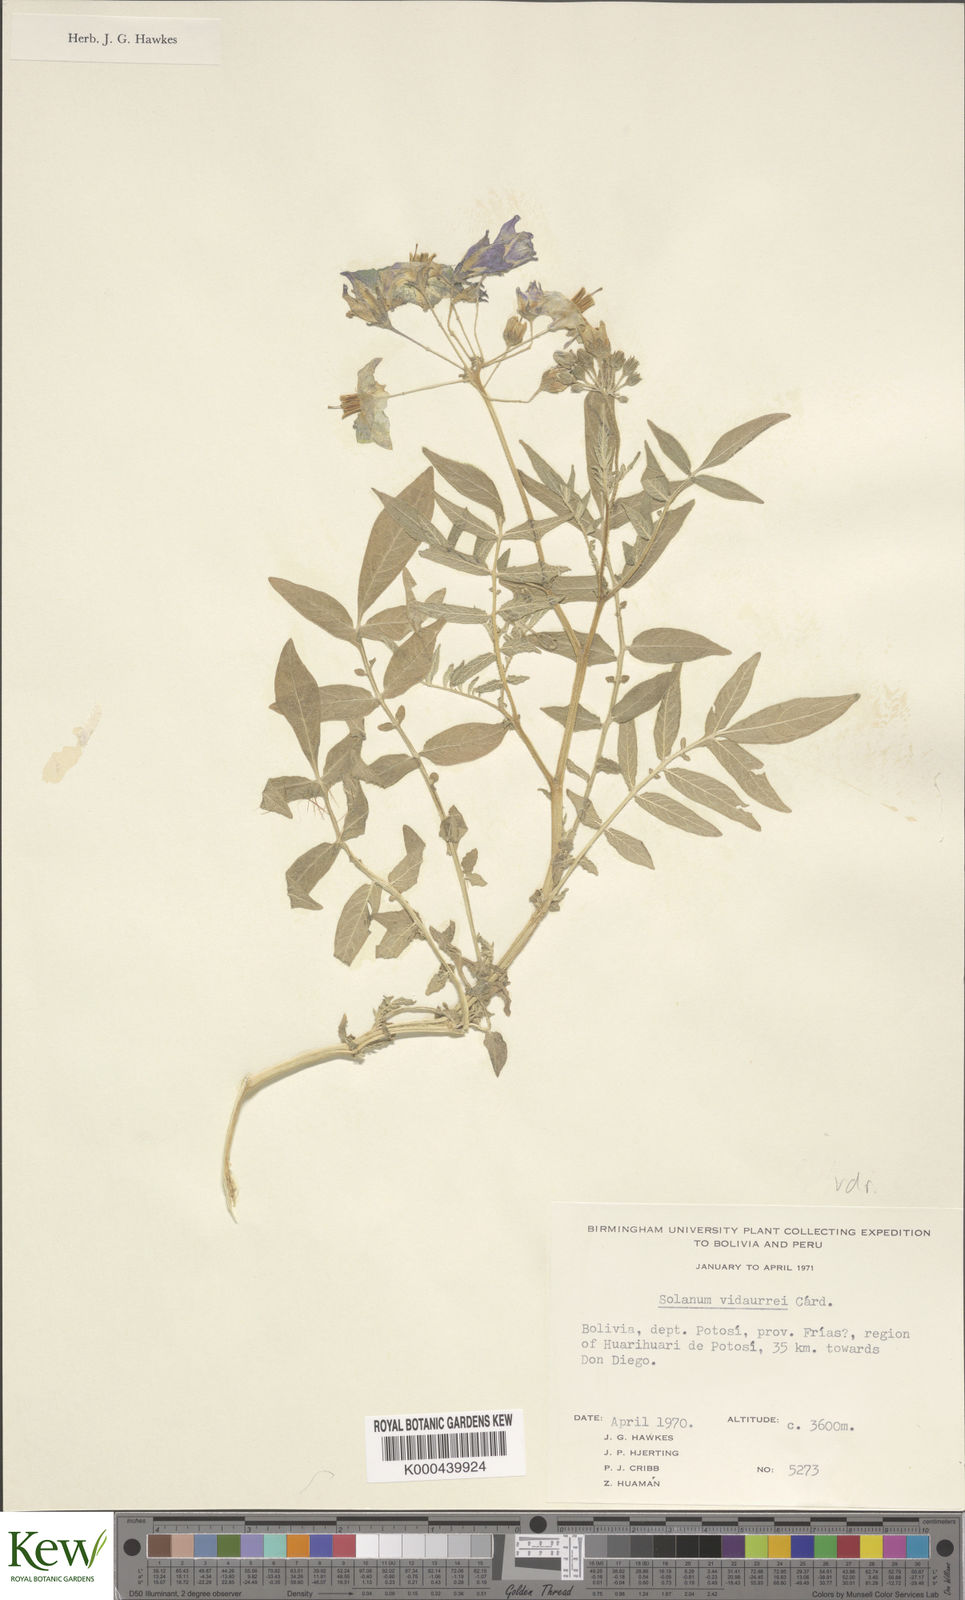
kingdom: Plantae
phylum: Tracheophyta
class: Magnoliopsida
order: Solanales
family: Solanaceae
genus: Solanum
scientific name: Solanum brevicaule
